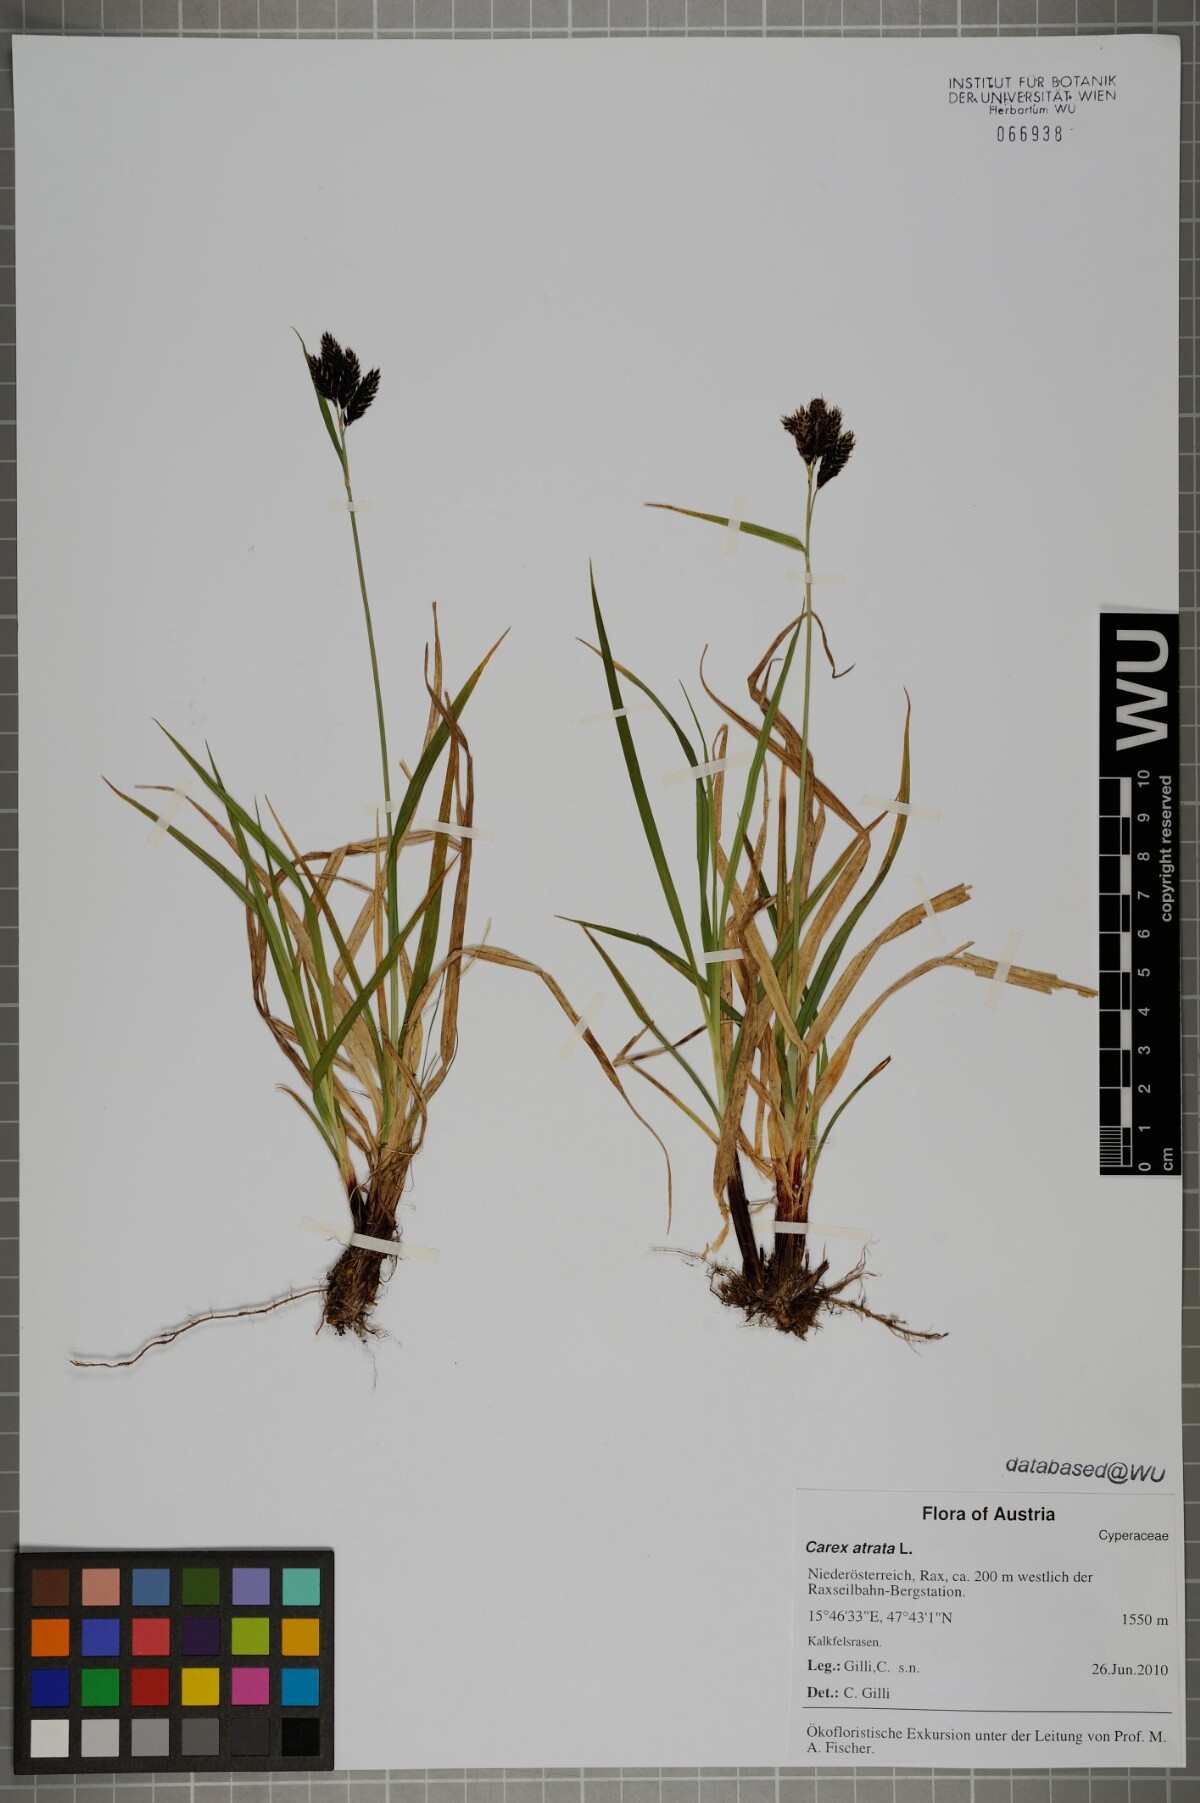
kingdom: Plantae
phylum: Tracheophyta
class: Liliopsida
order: Poales
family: Cyperaceae
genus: Carex
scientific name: Carex atrata
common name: Black alpine sedge
